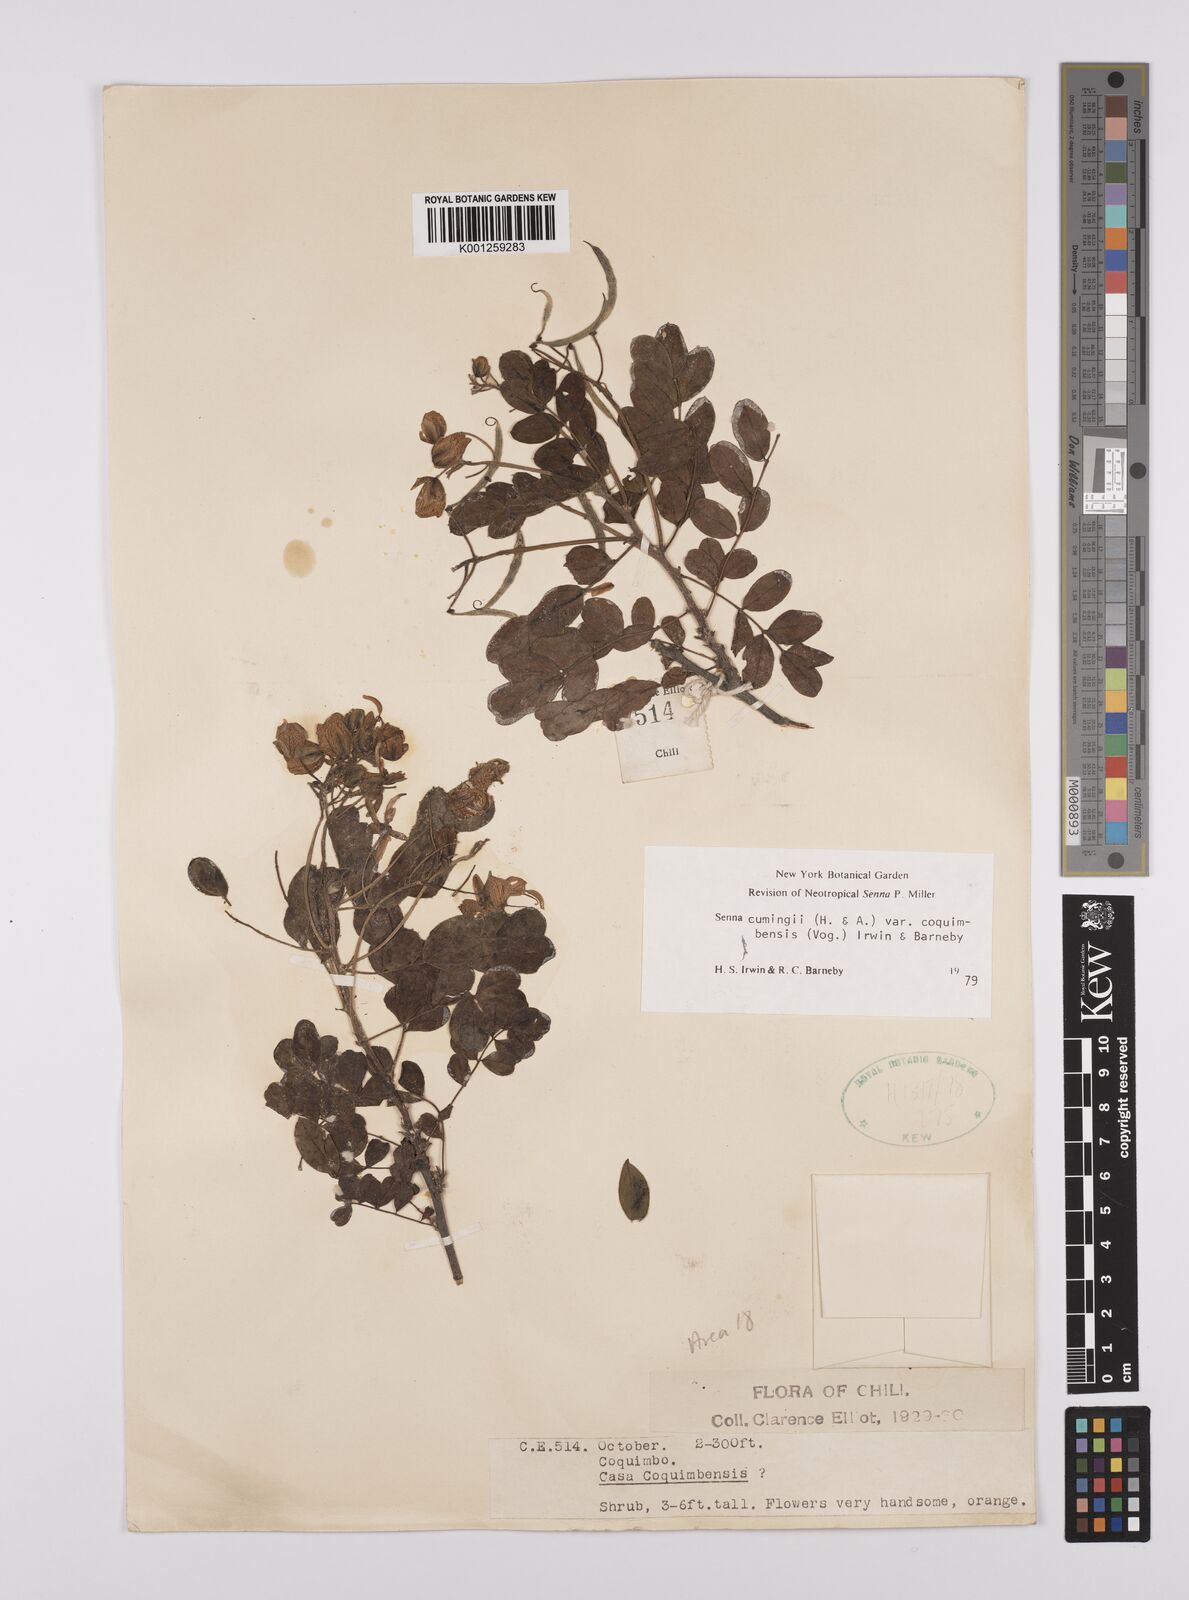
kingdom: Plantae
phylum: Tracheophyta
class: Magnoliopsida
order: Fabales
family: Fabaceae
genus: Senna
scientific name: Senna cumingii
